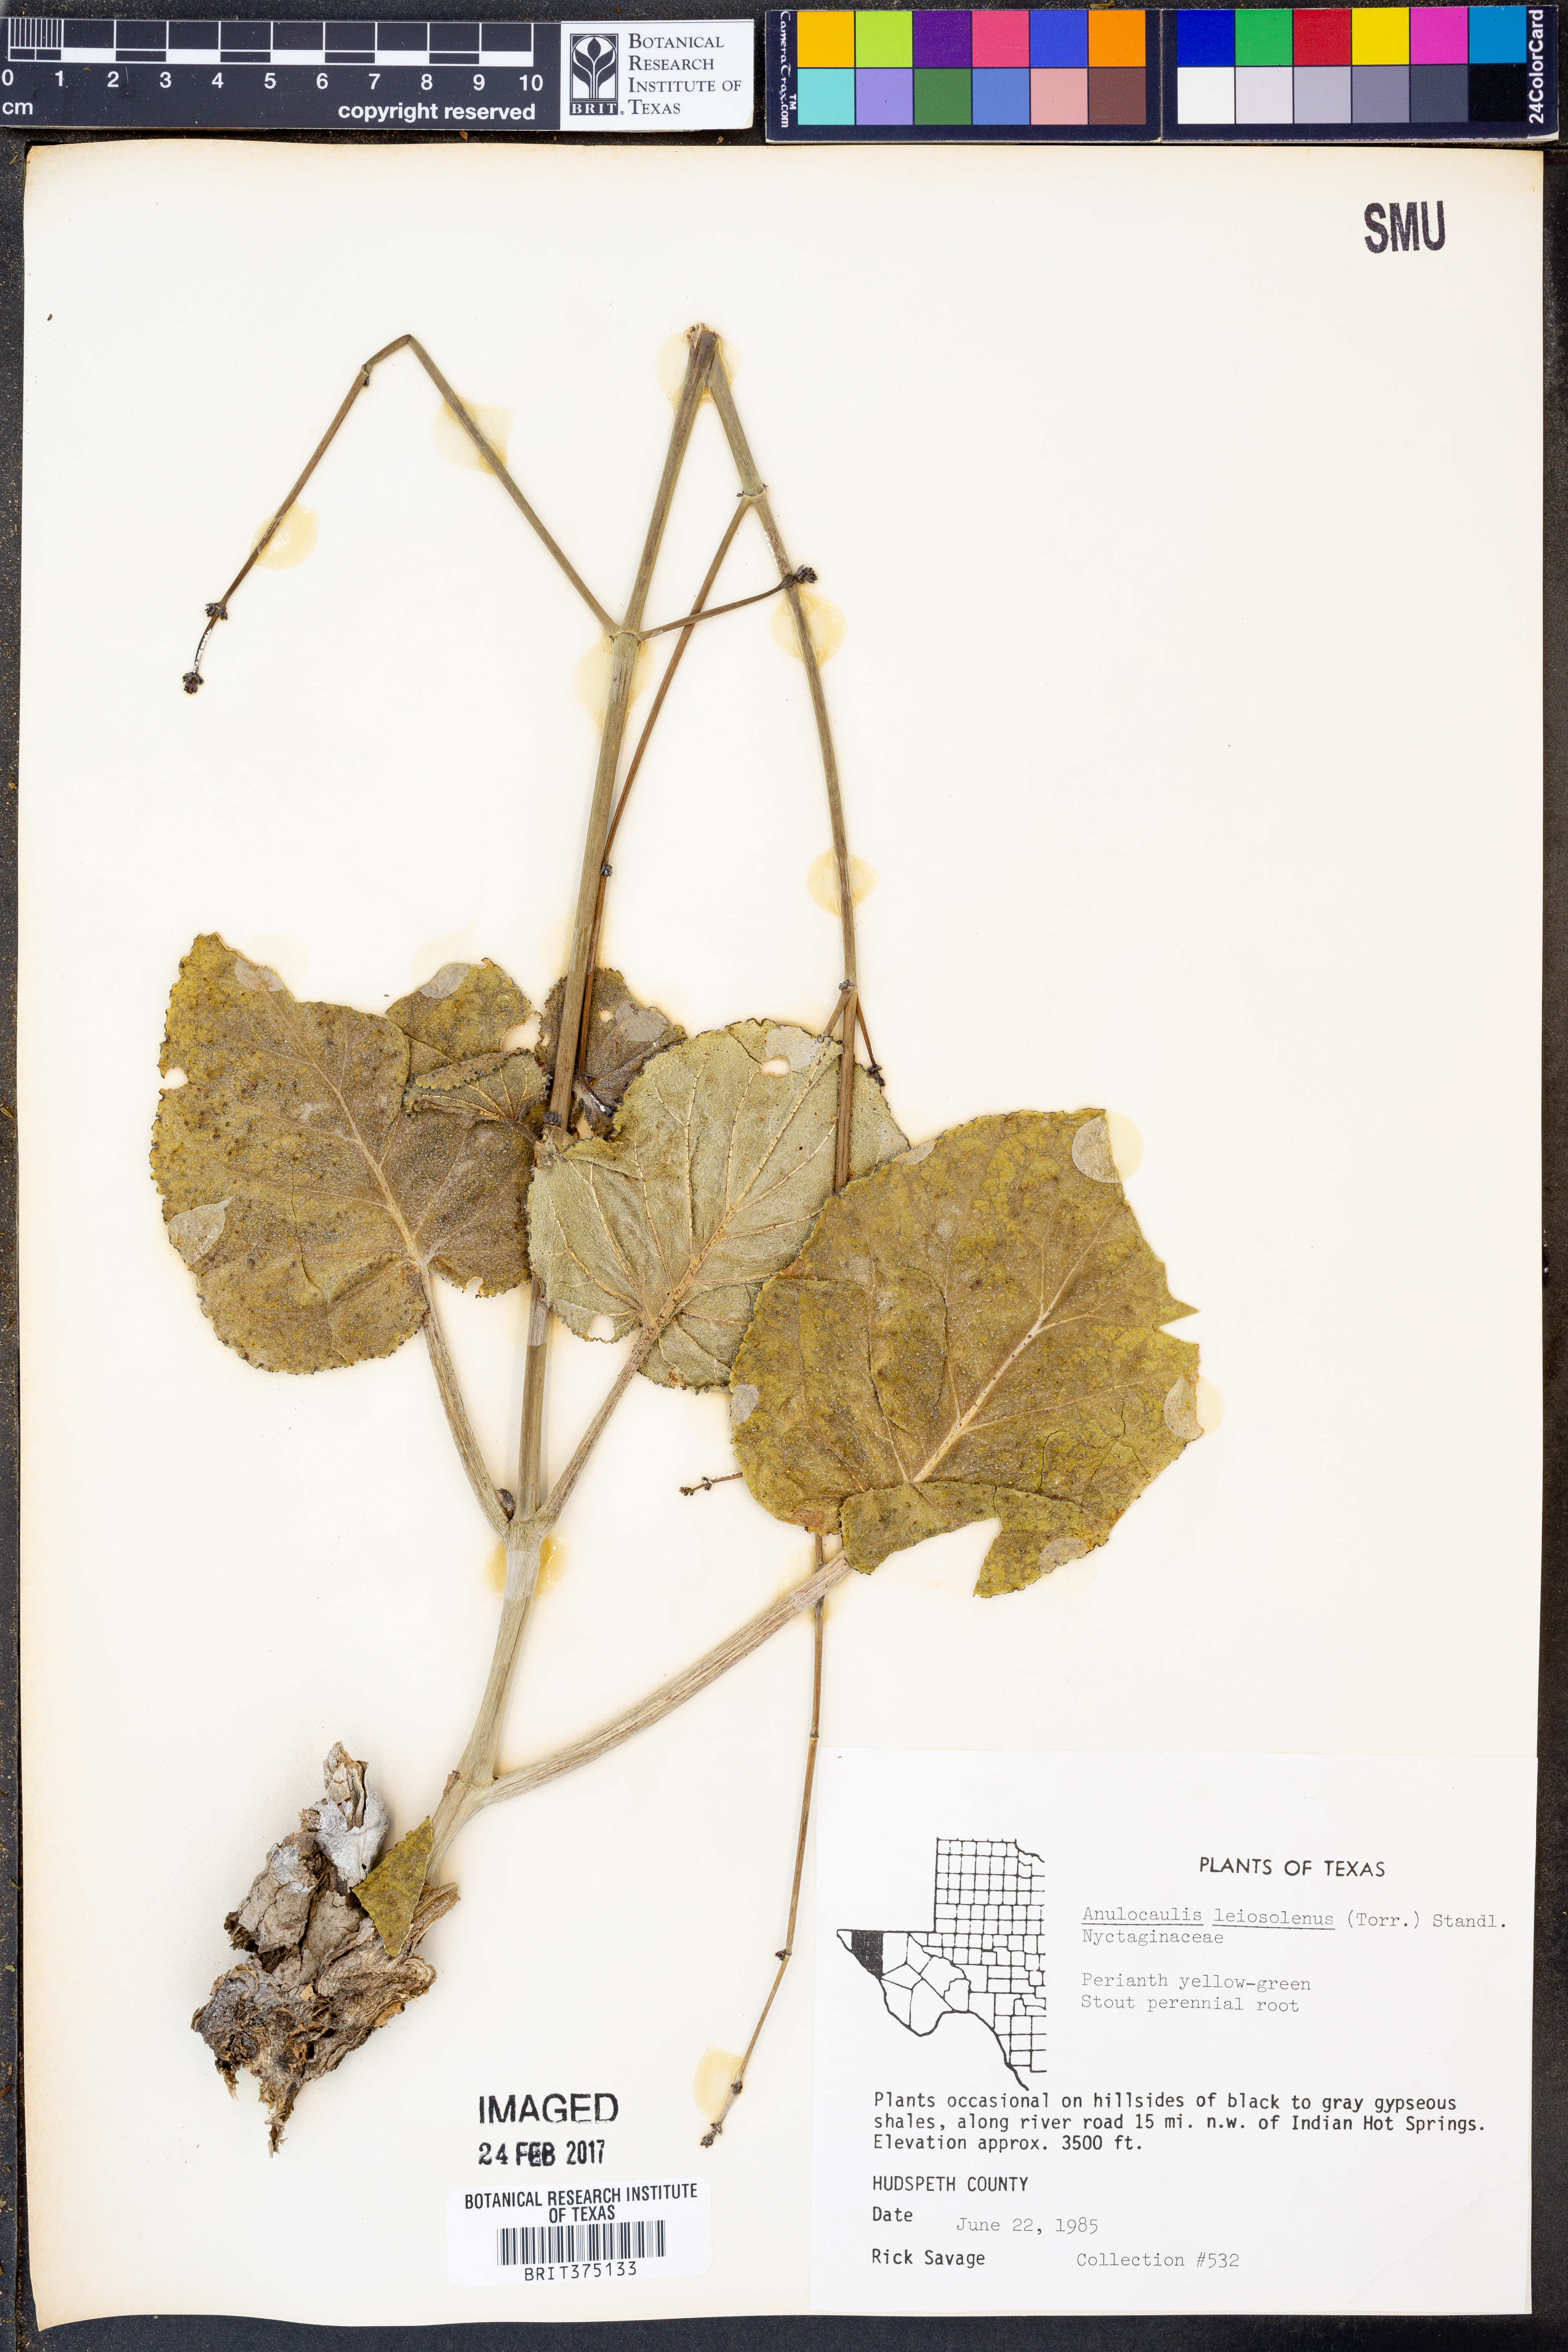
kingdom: Plantae
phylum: Tracheophyta
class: Magnoliopsida
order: Caryophyllales
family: Nyctaginaceae
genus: Anulocaulis
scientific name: Anulocaulis leiosolenus
